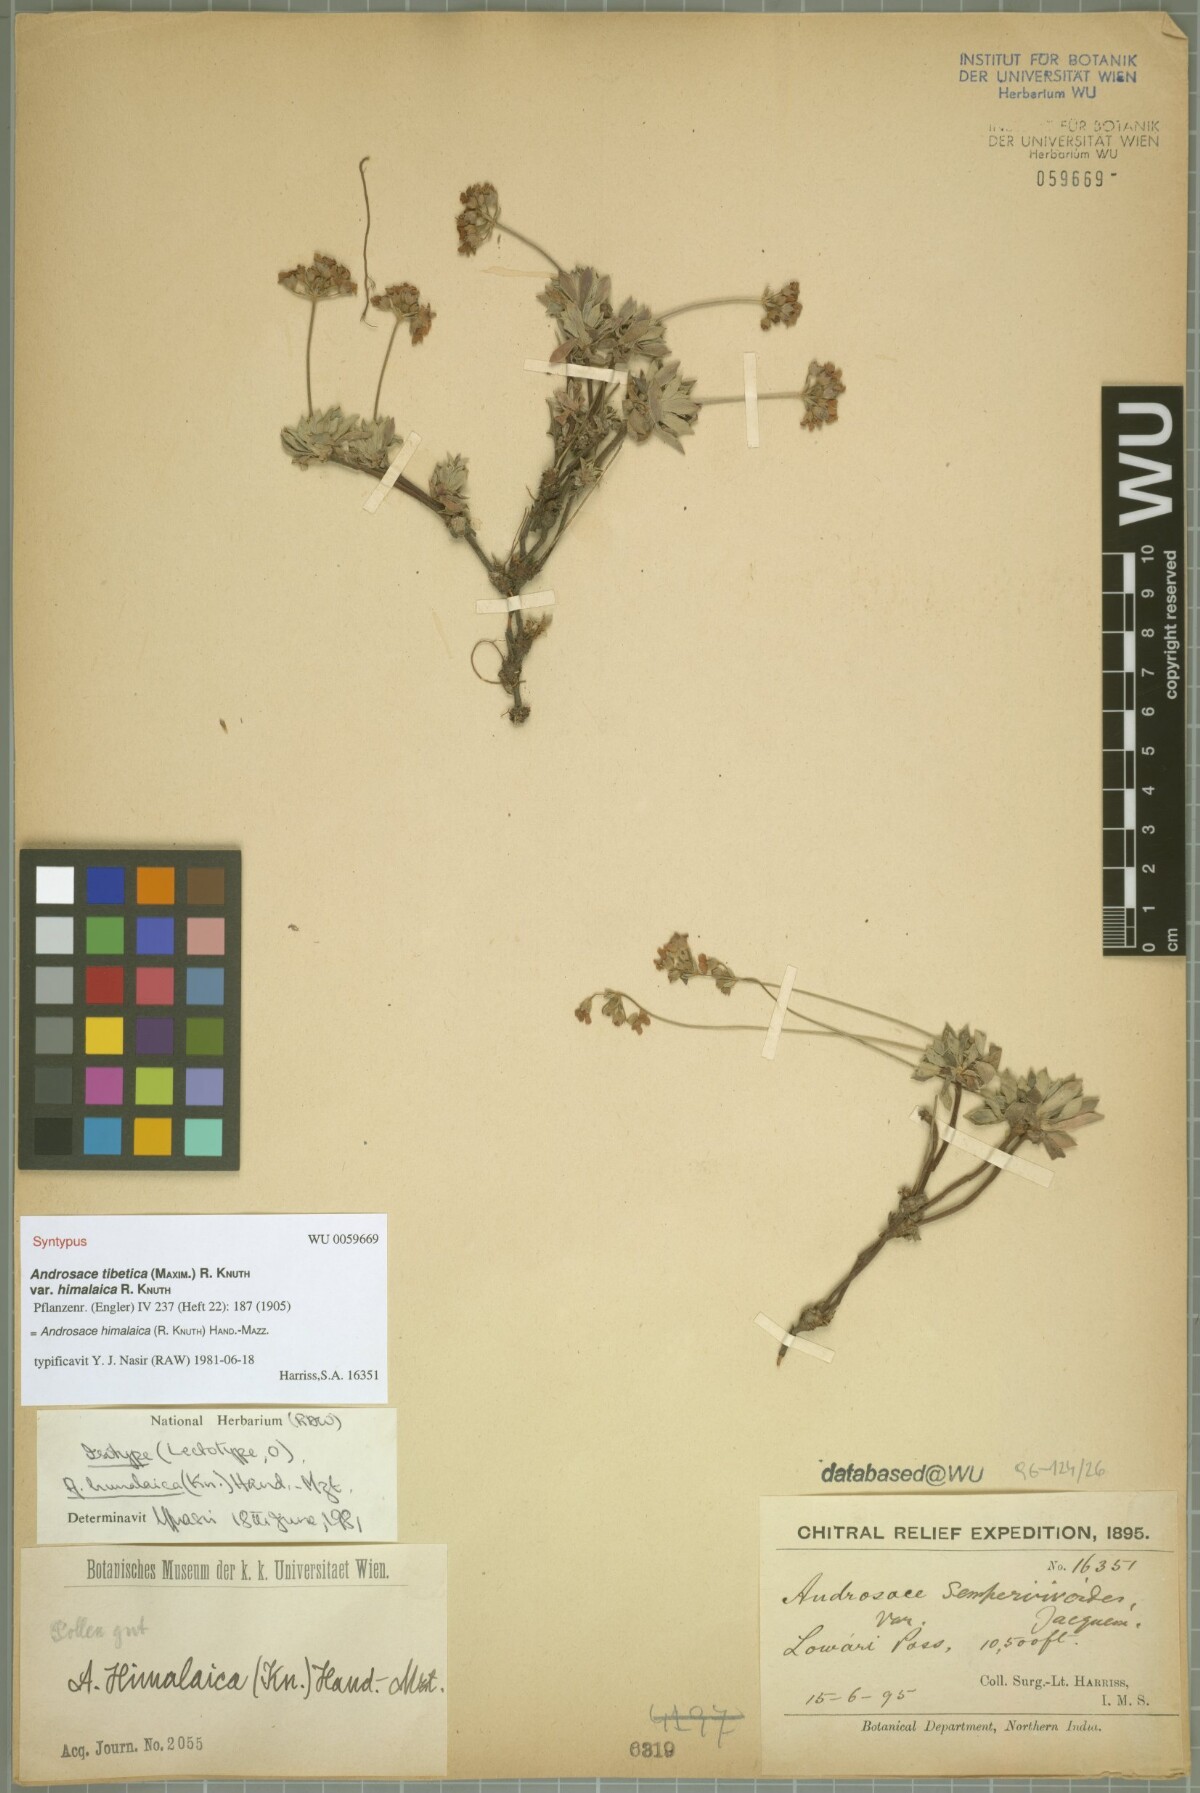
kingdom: Plantae
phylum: Tracheophyta
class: Magnoliopsida
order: Ericales
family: Primulaceae
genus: Androsace
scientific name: Androsace tibetica
